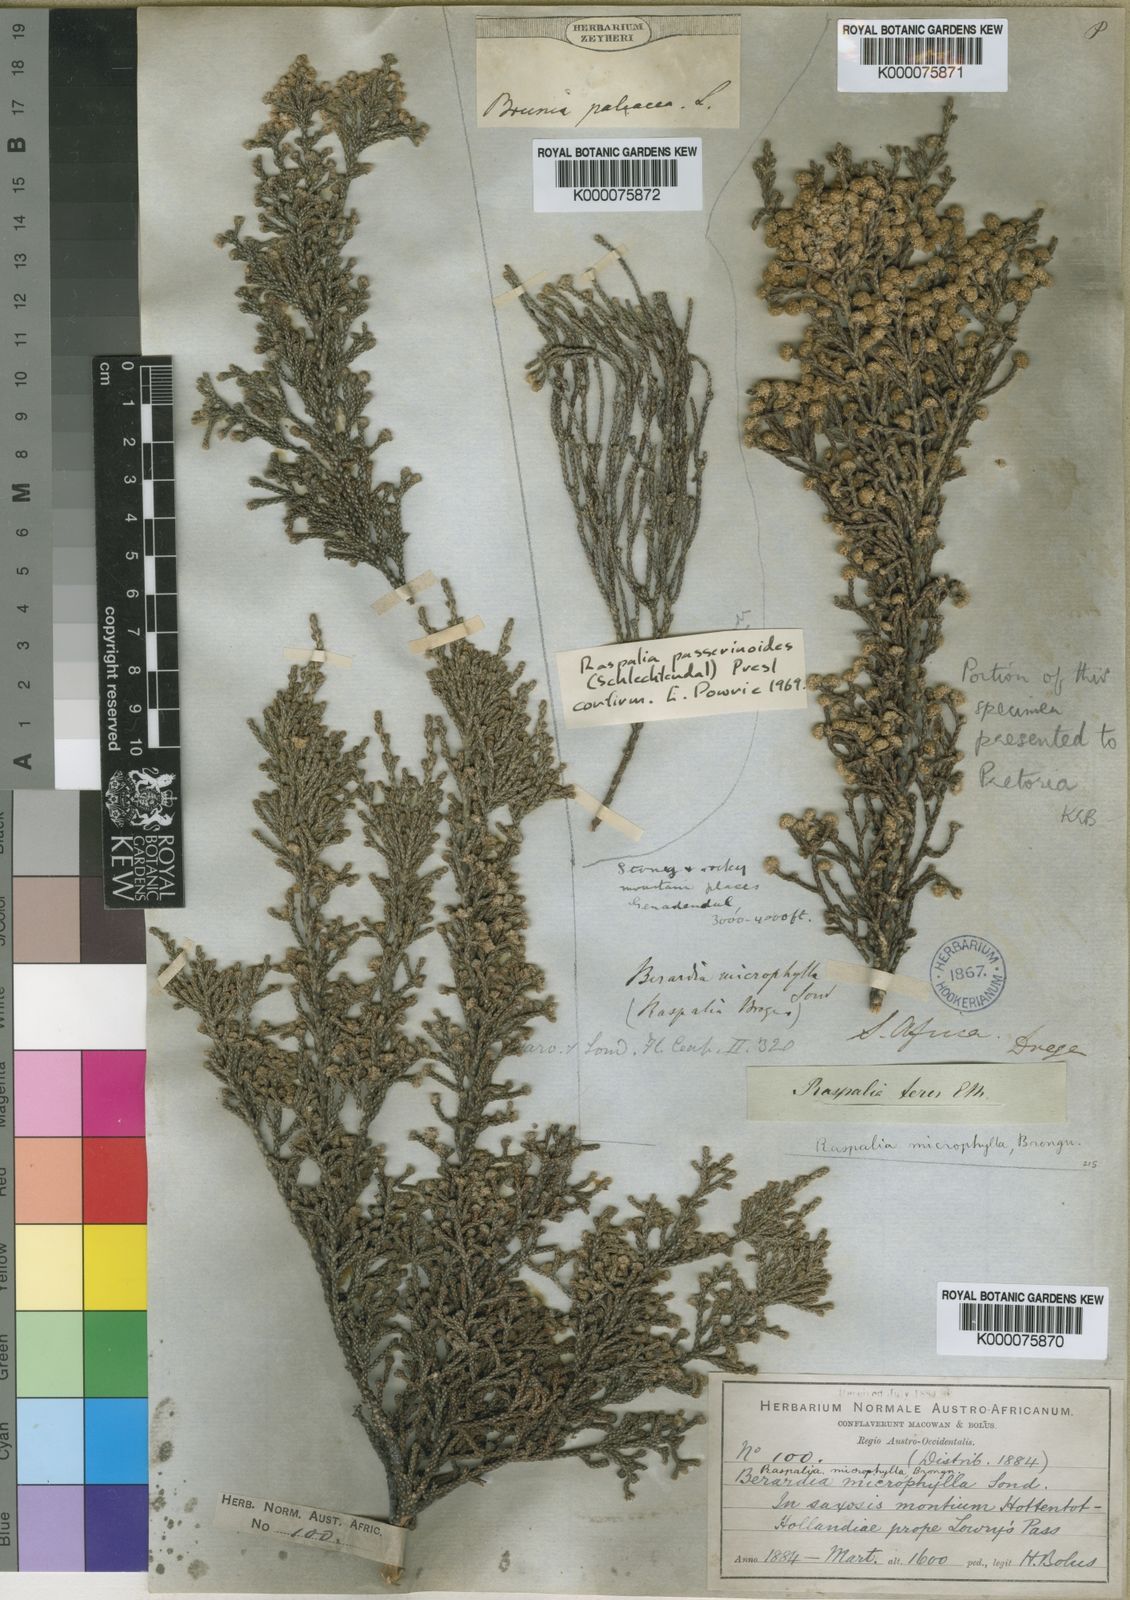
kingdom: Plantae
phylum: Tracheophyta
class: Magnoliopsida
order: Bruniales
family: Bruniaceae
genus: Brunia
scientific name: Brunia microphylla
